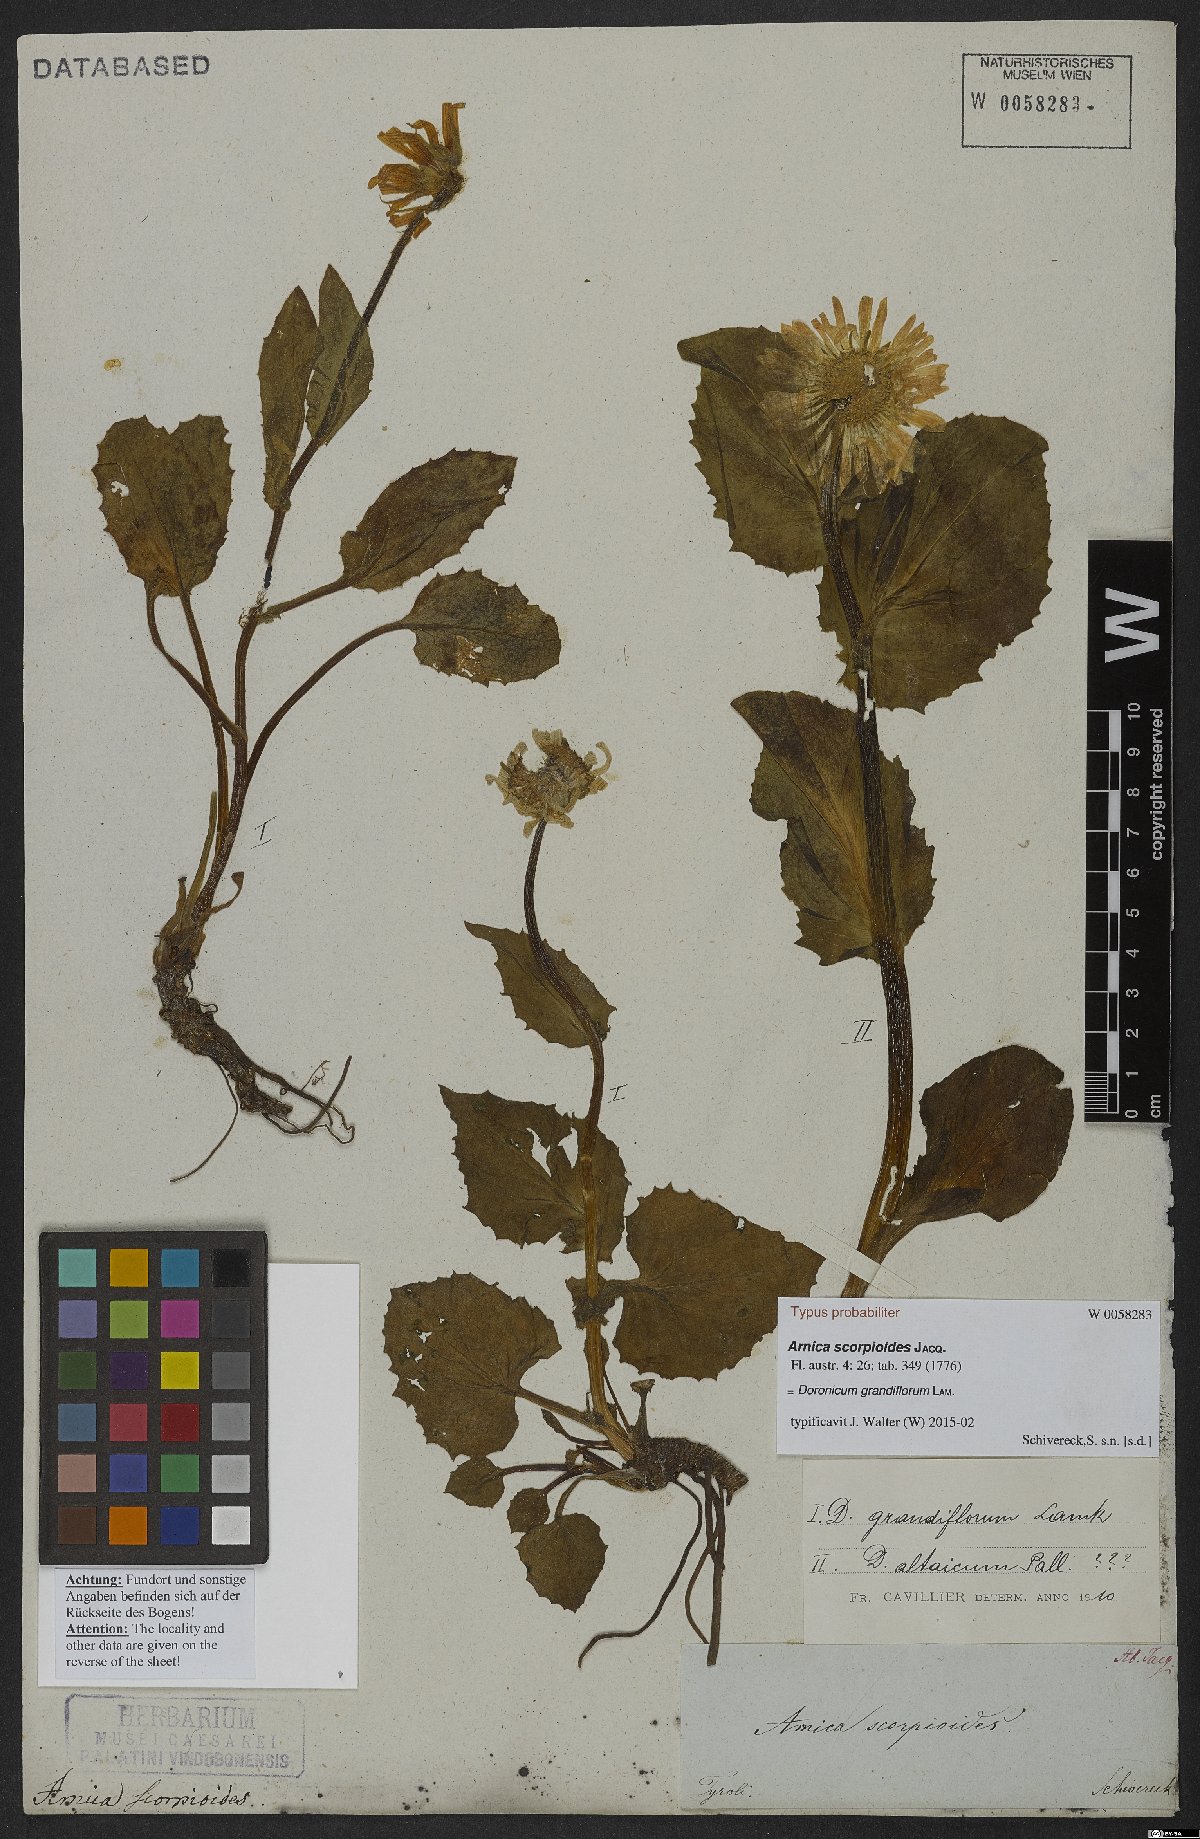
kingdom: Plantae
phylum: Tracheophyta
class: Magnoliopsida
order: Asterales
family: Asteraceae
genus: Doronicum
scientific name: Doronicum grandiflorum
